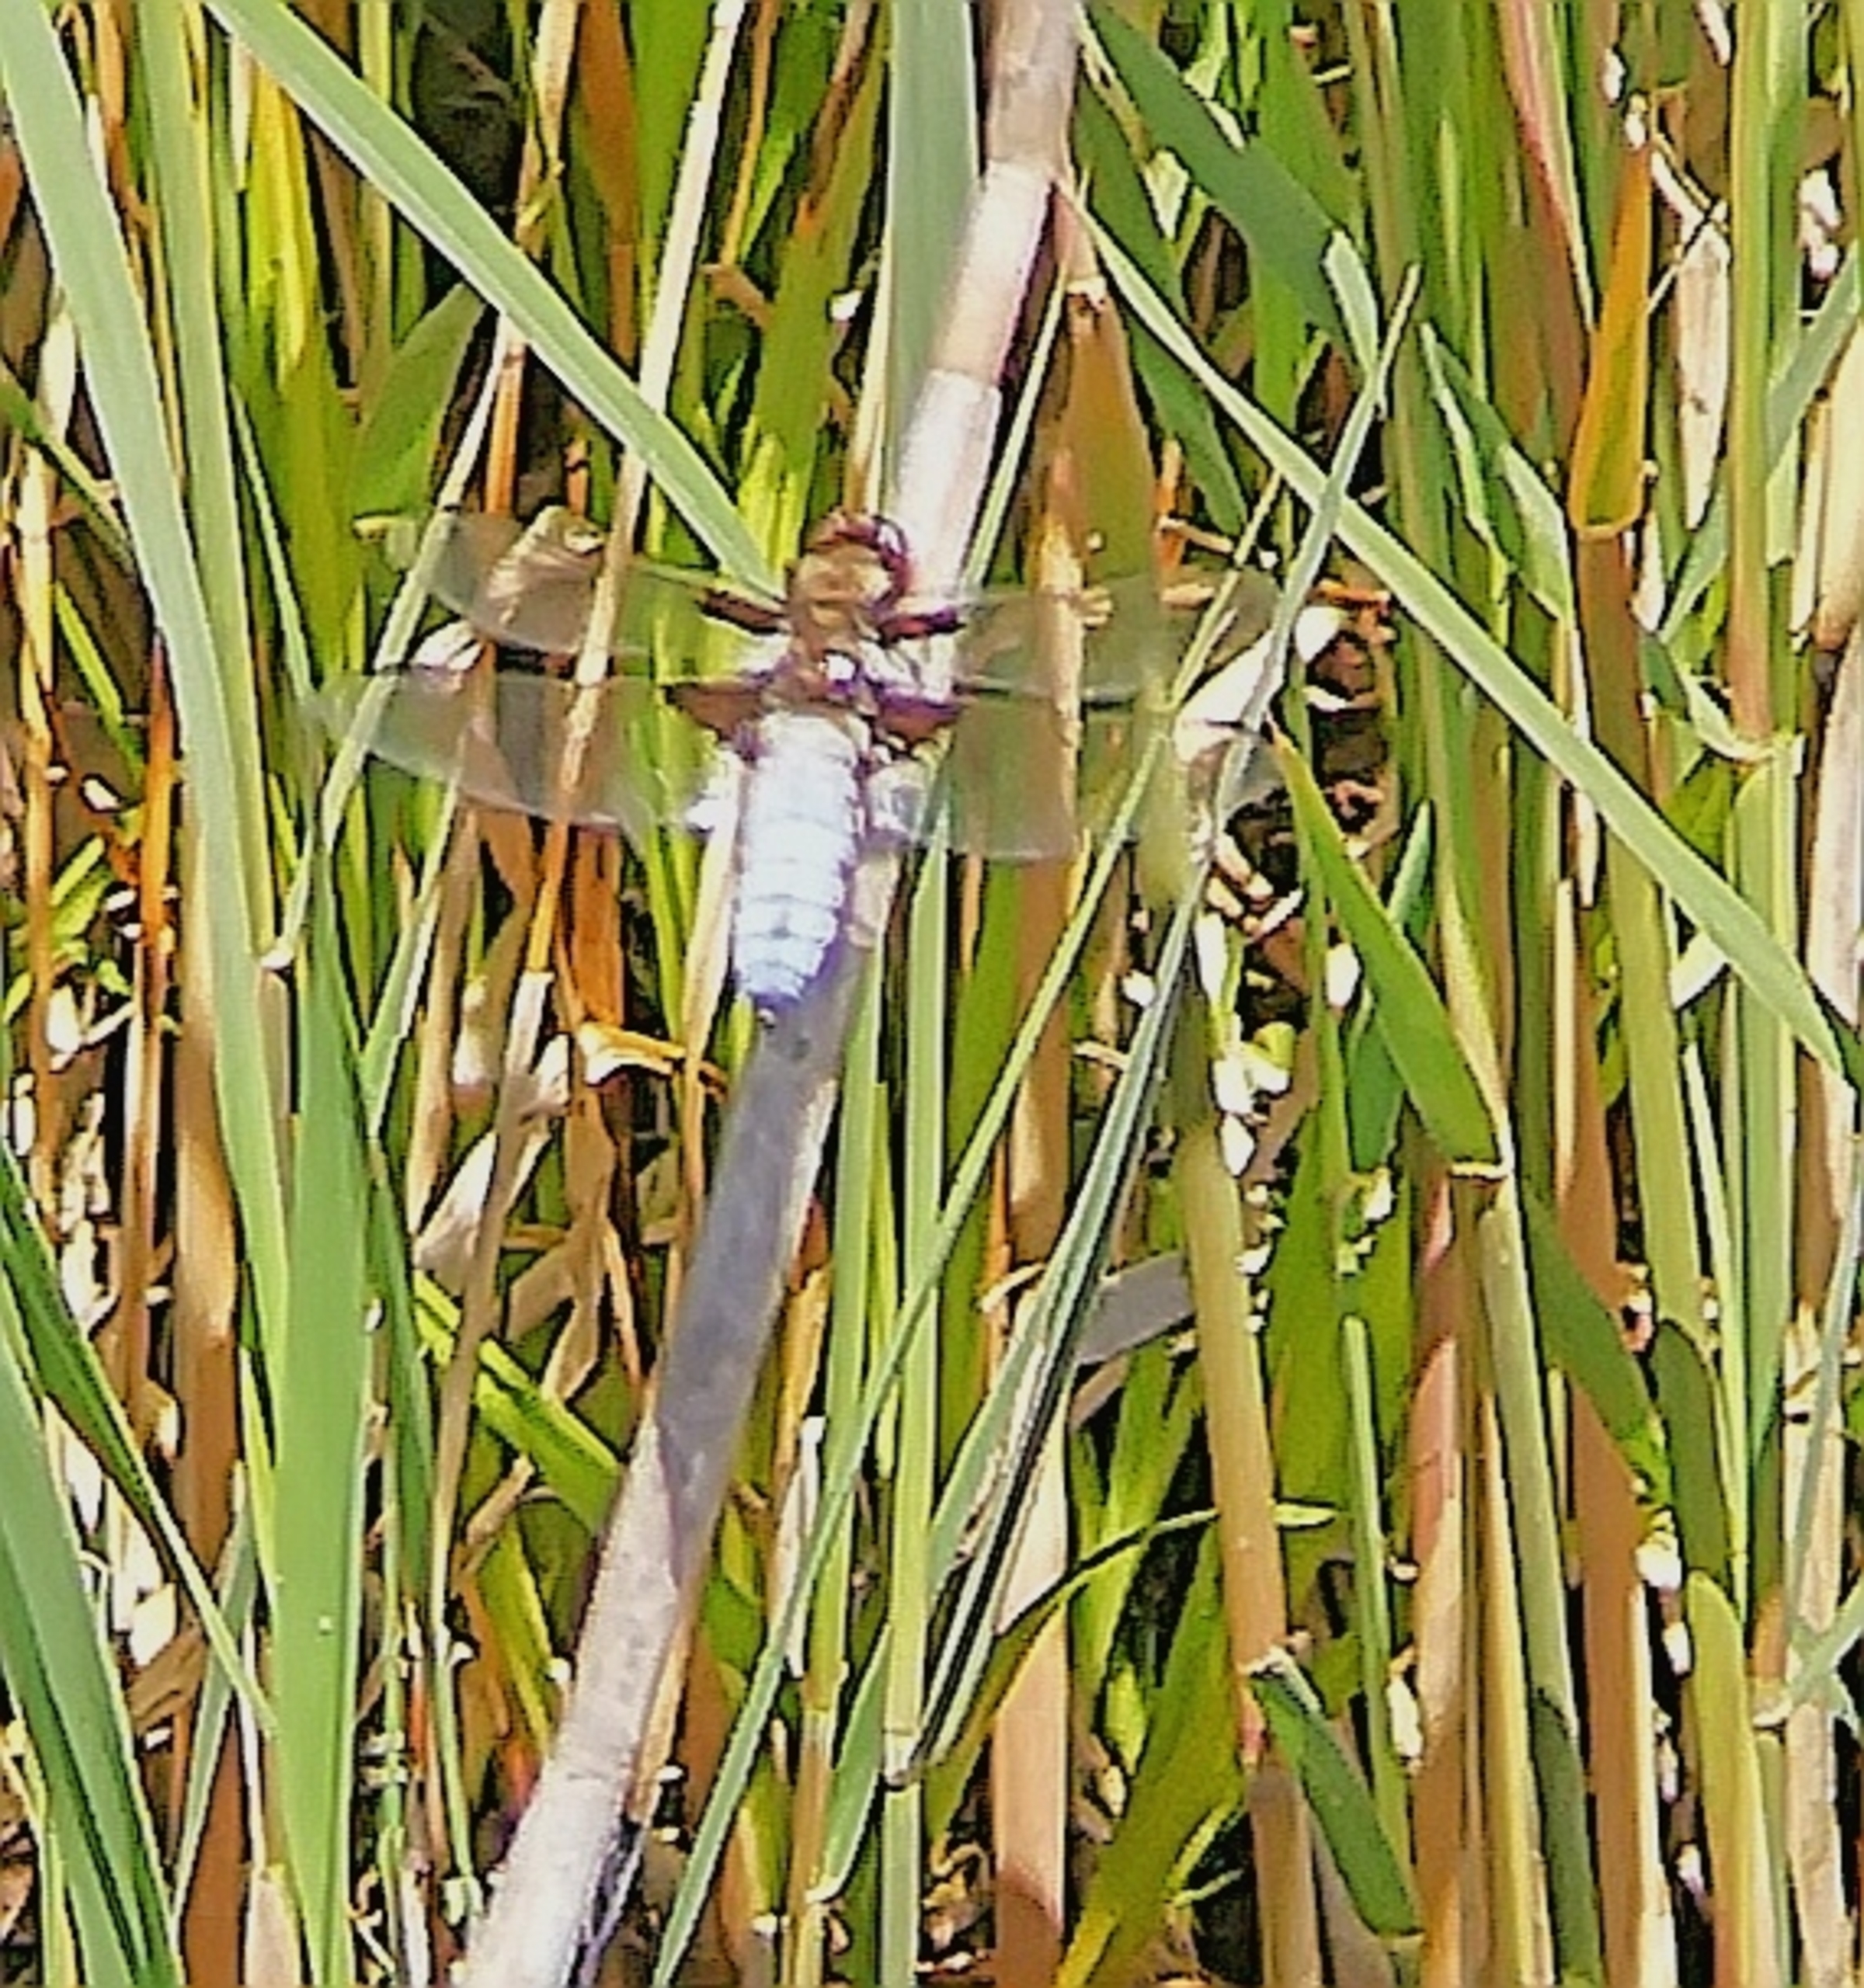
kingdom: Animalia
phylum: Arthropoda
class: Insecta
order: Odonata
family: Libellulidae
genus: Libellula
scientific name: Libellula depressa
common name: Blå libel
